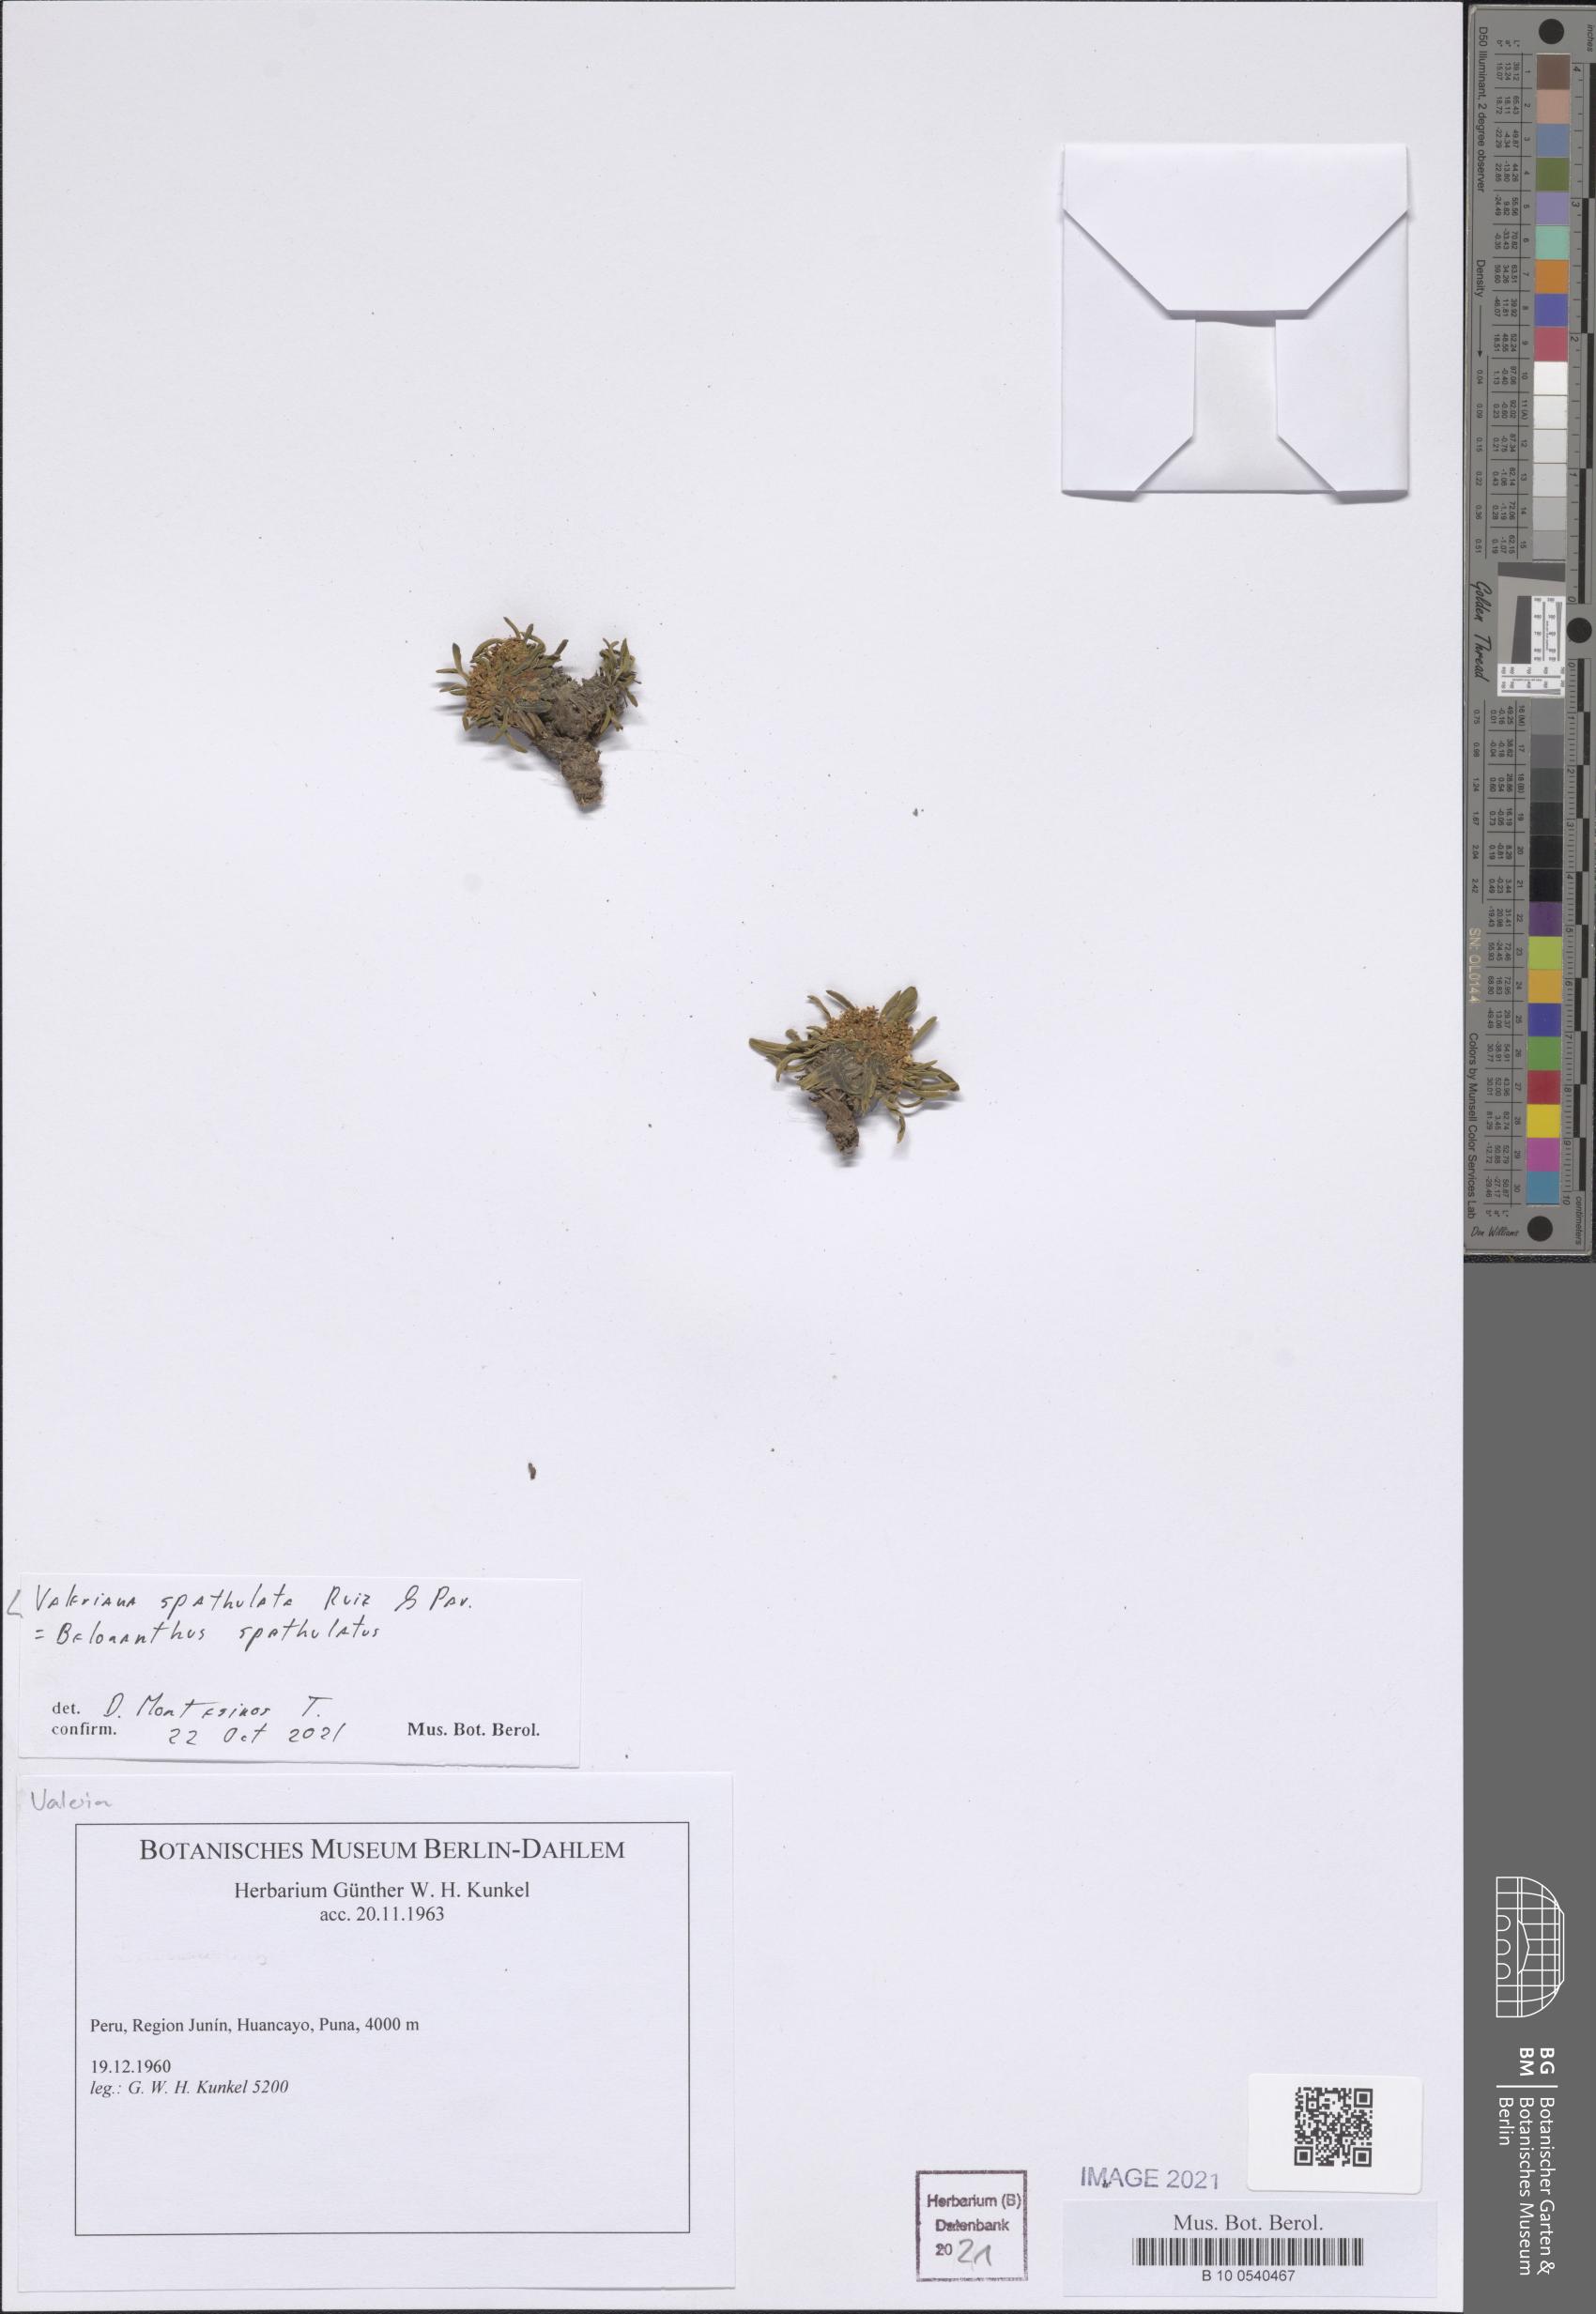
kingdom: Plantae
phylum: Tracheophyta
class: Magnoliopsida
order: Dipsacales
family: Caprifoliaceae
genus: Valeriana
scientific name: Valeriana spathulata
